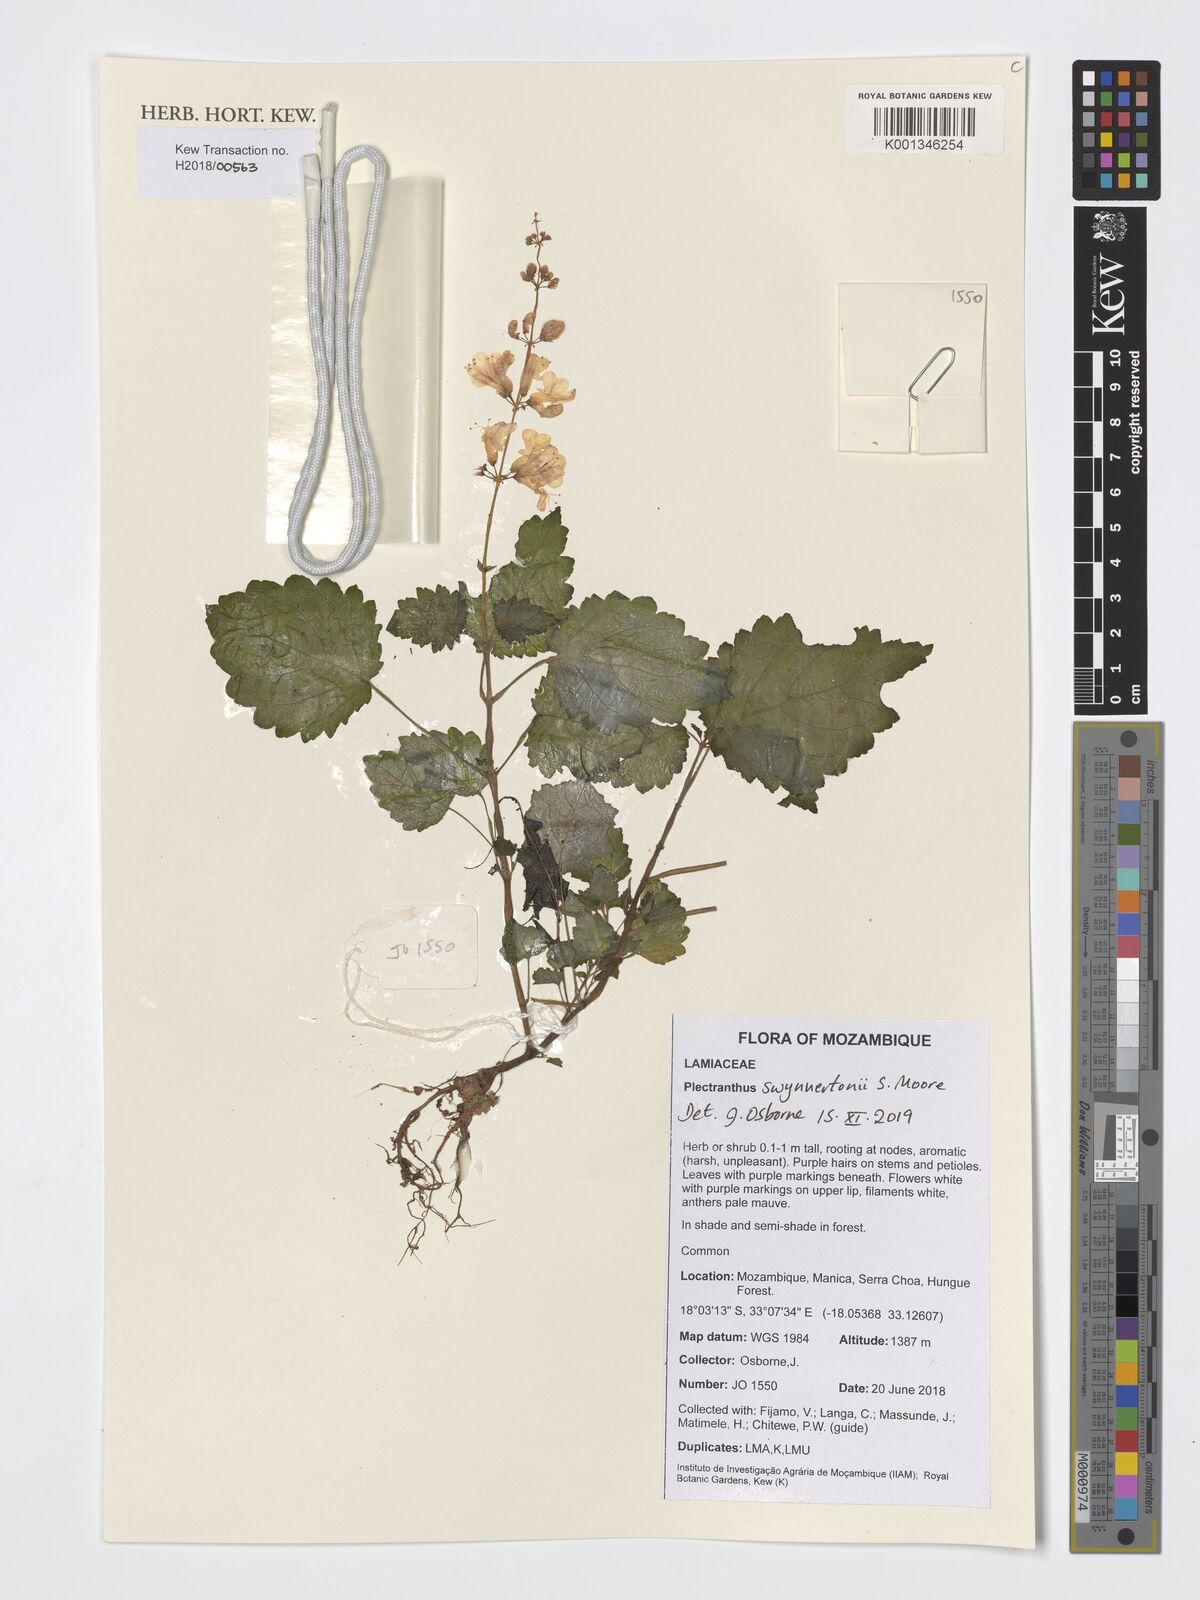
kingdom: Plantae
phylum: Tracheophyta
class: Magnoliopsida
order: Lamiales
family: Lamiaceae
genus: Plectranthus
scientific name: Plectranthus swynnertonii
